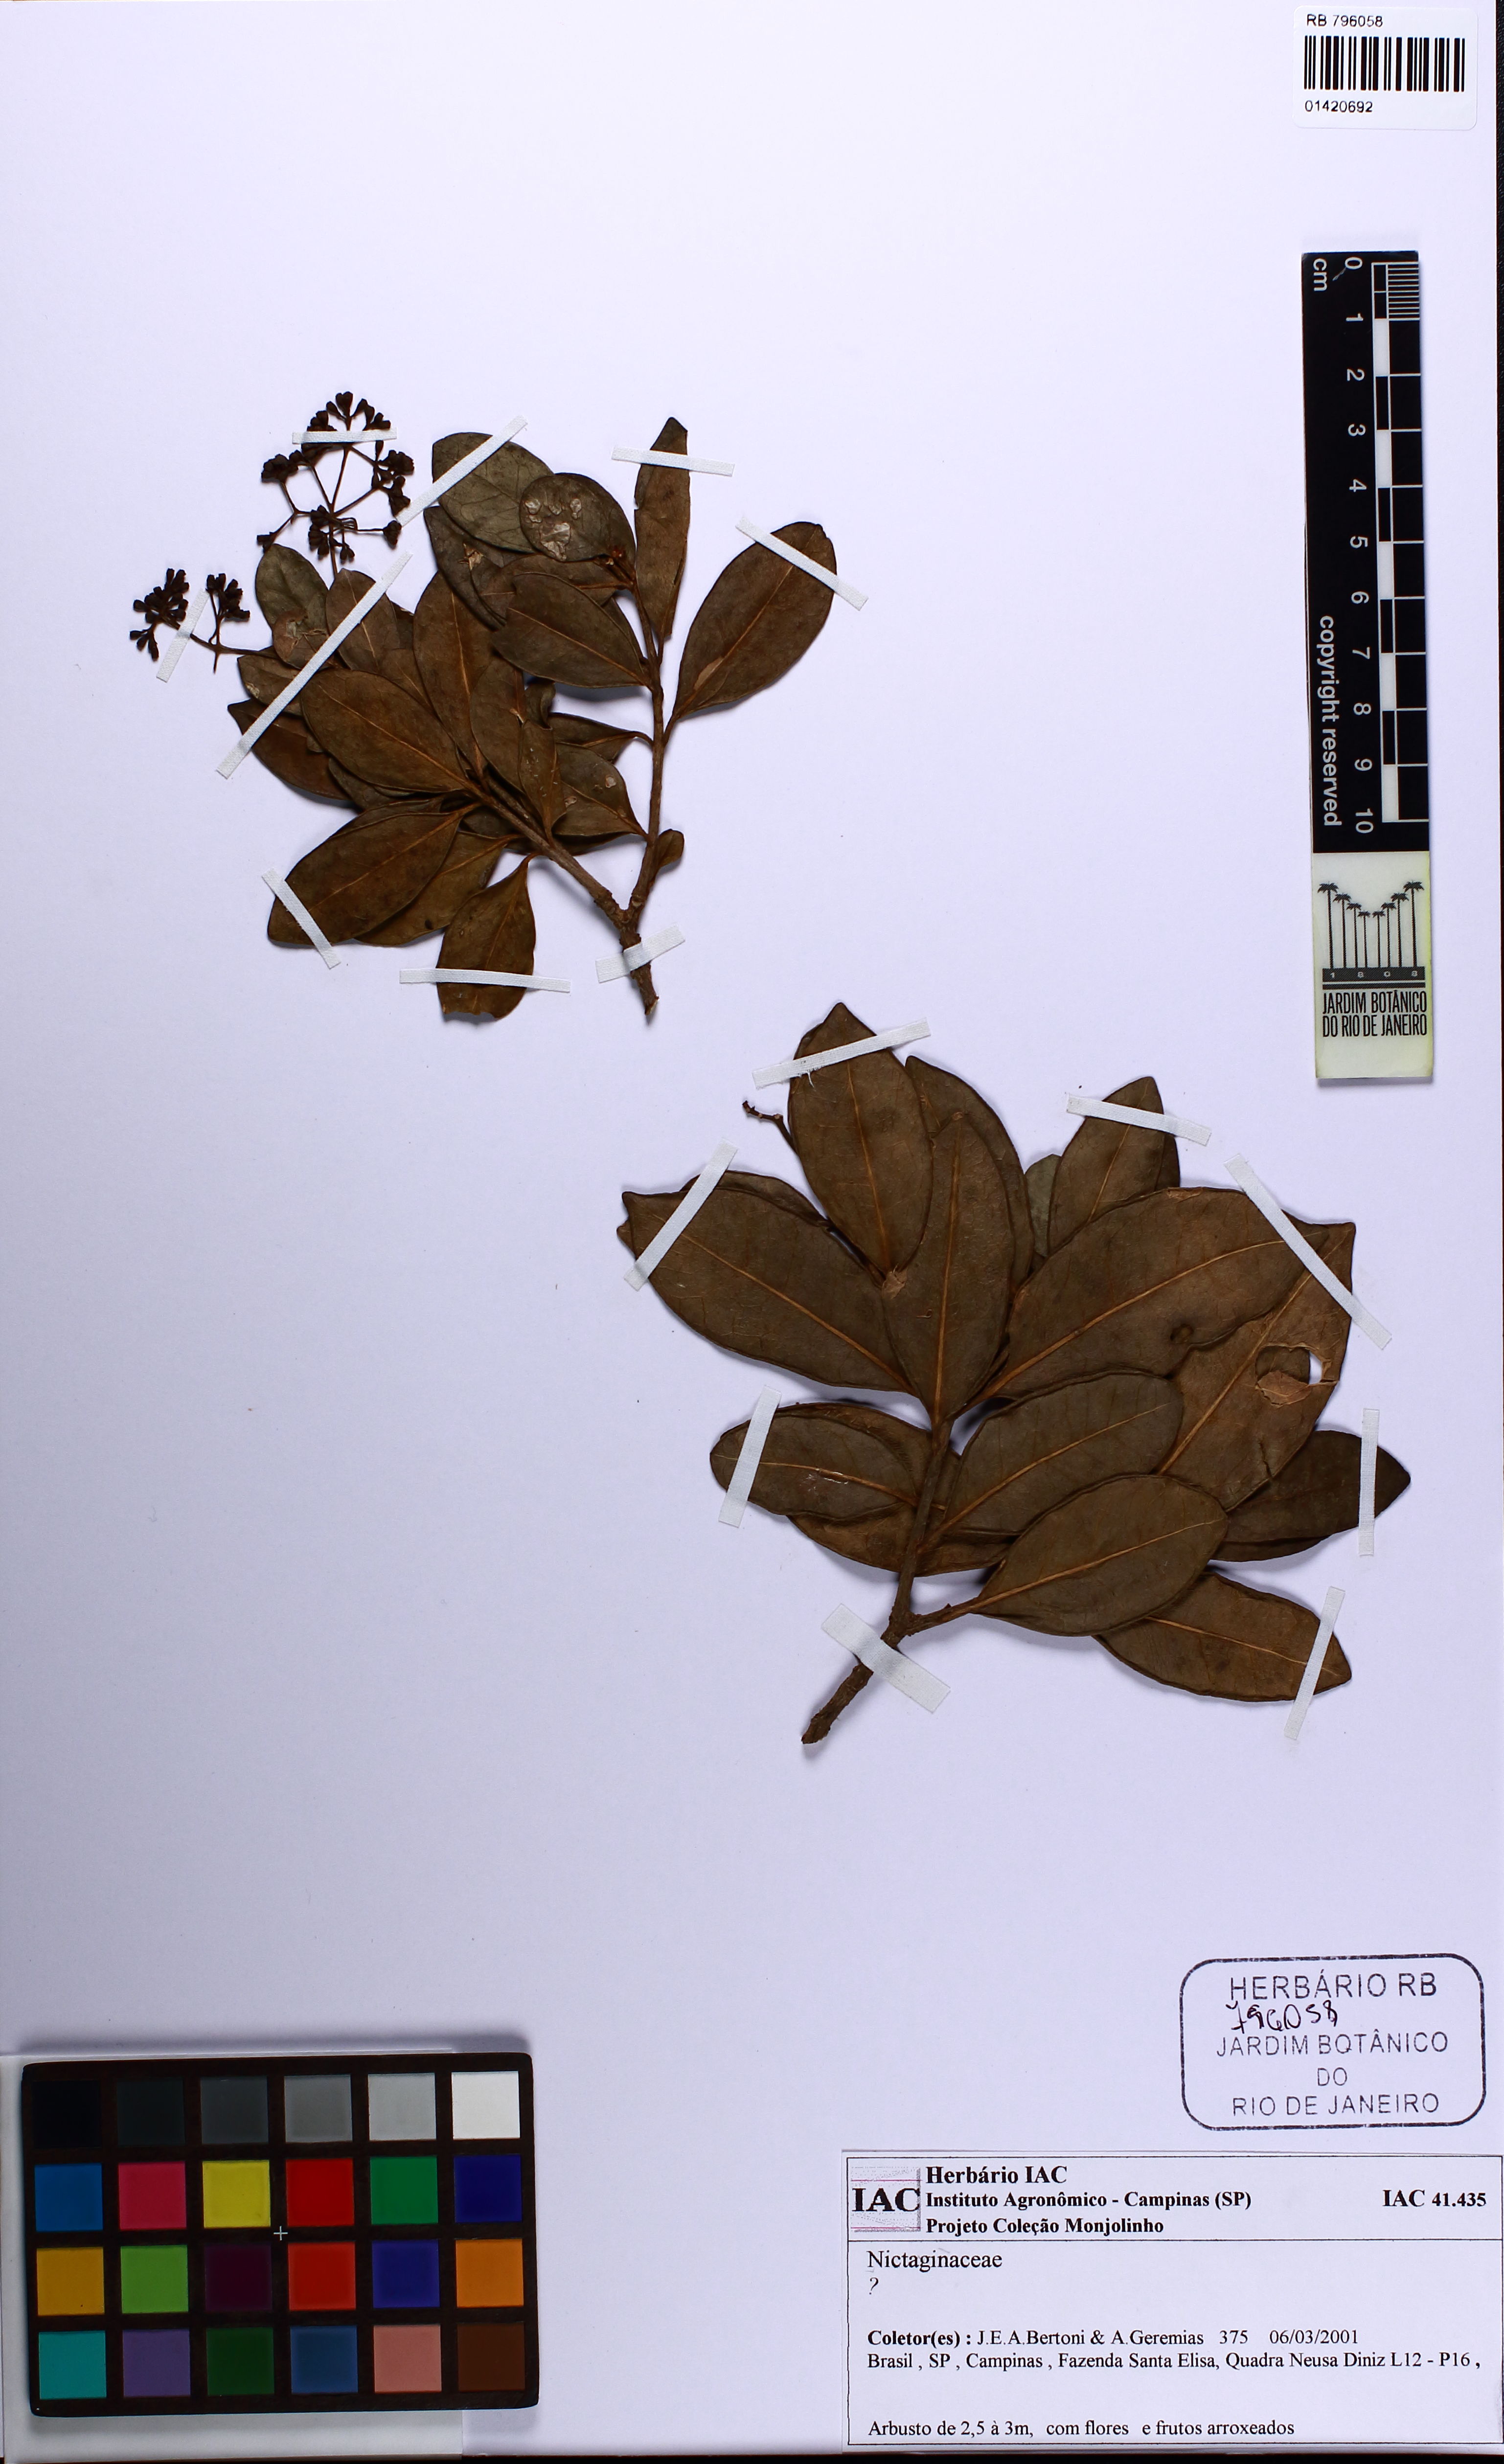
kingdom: Plantae
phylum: Tracheophyta
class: Magnoliopsida
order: Caryophyllales
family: Nyctaginaceae
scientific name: Nyctaginaceae
